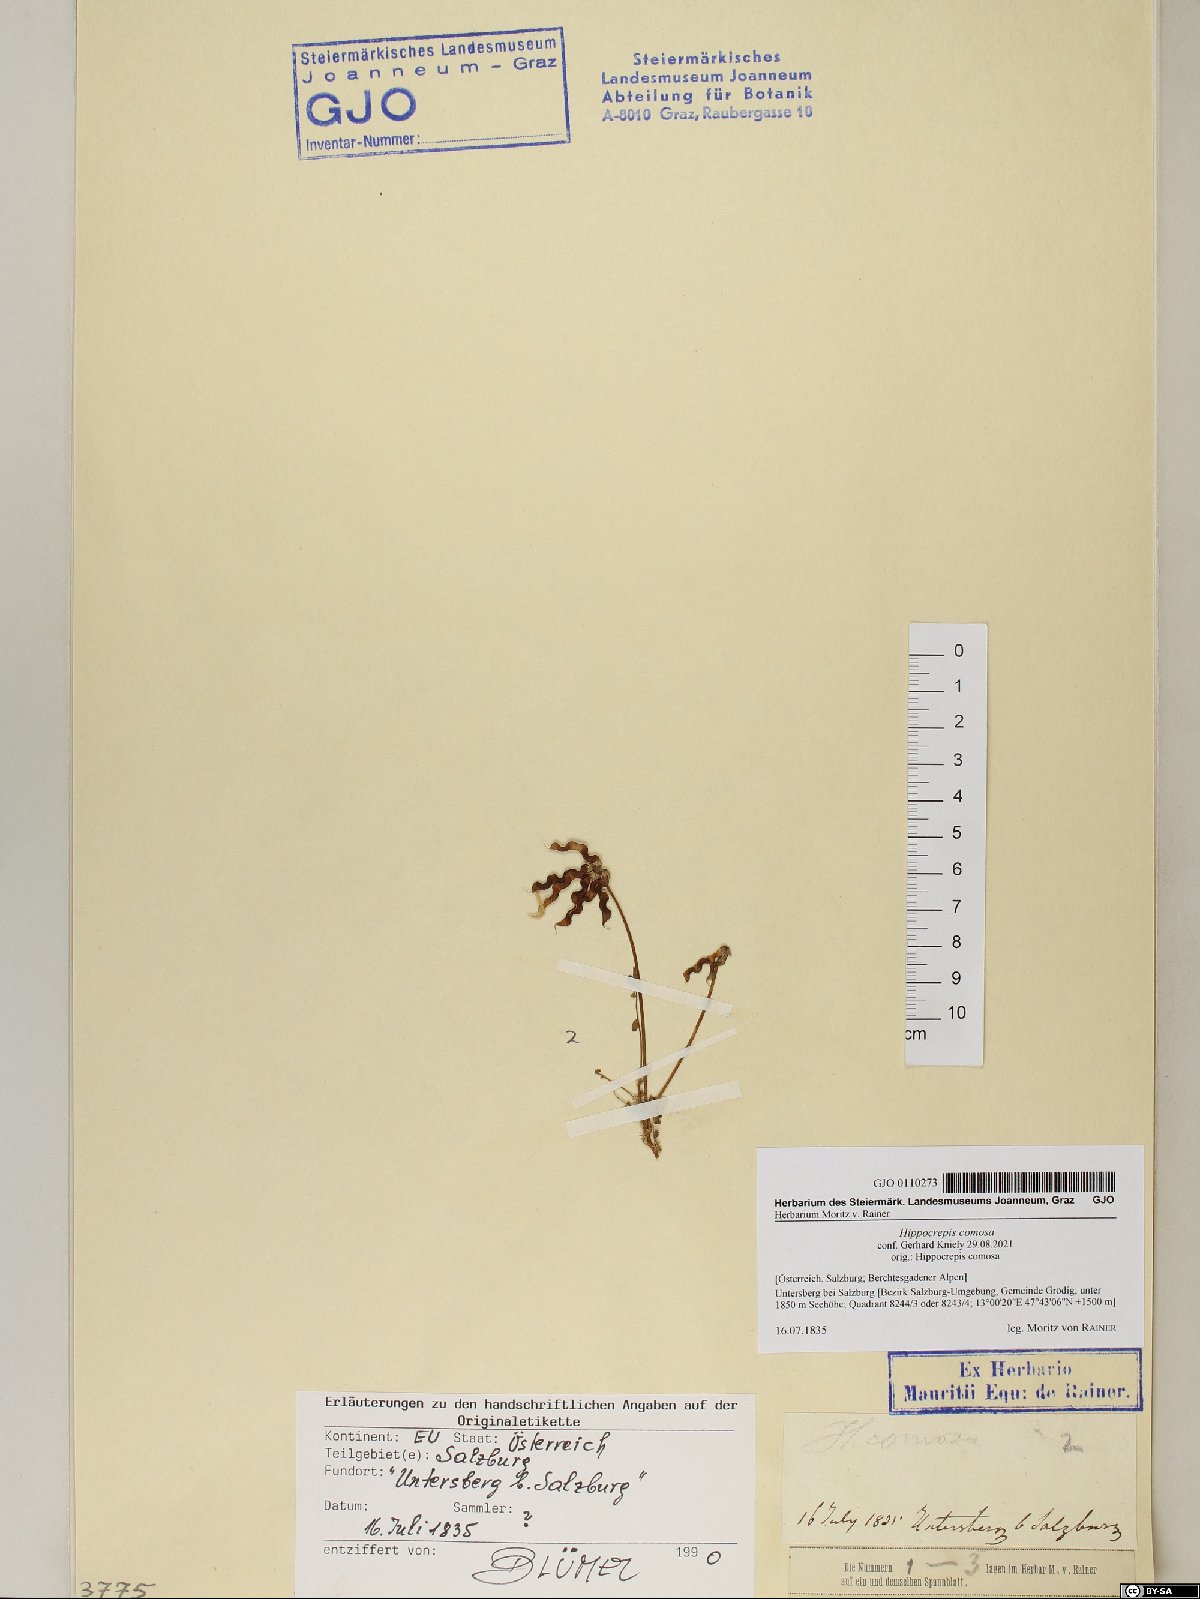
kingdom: Plantae
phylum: Tracheophyta
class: Magnoliopsida
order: Fabales
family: Fabaceae
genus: Hippocrepis
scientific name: Hippocrepis comosa
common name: Horseshoe vetch
